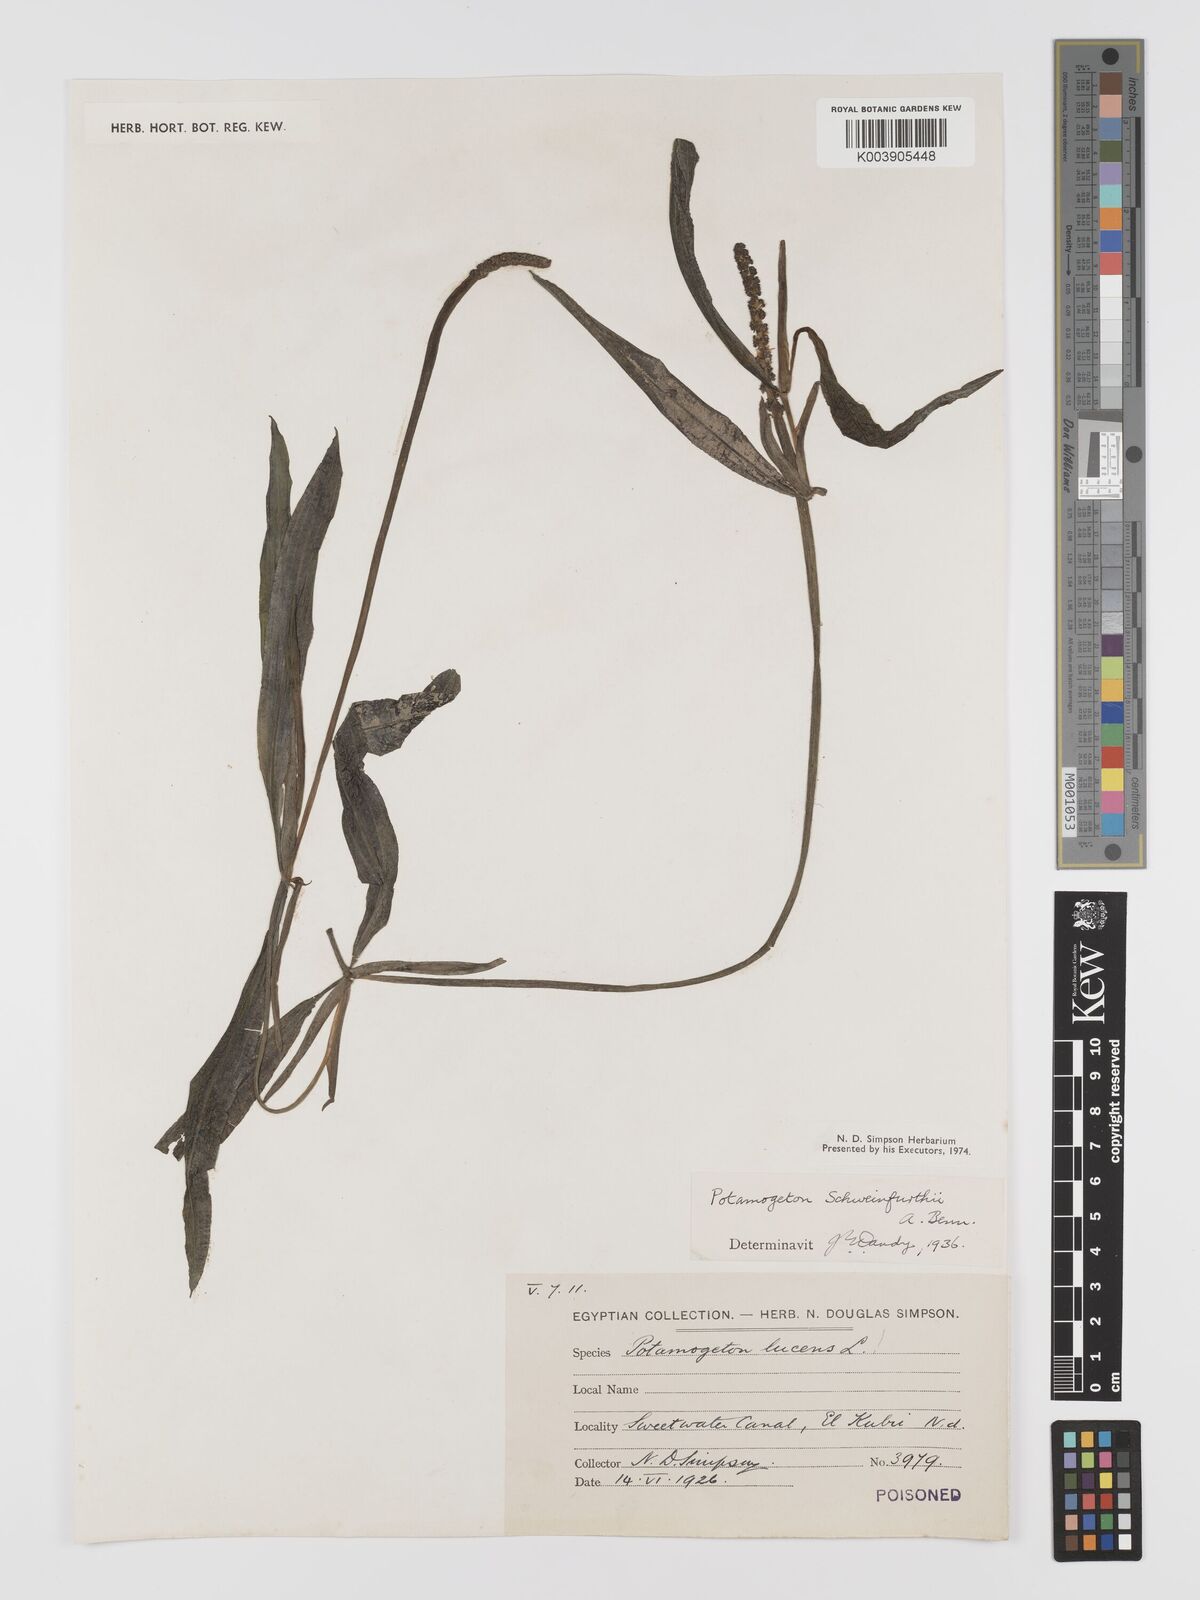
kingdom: Plantae
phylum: Tracheophyta
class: Liliopsida
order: Alismatales
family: Potamogetonaceae
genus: Potamogeton
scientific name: Potamogeton schweinfurthii
